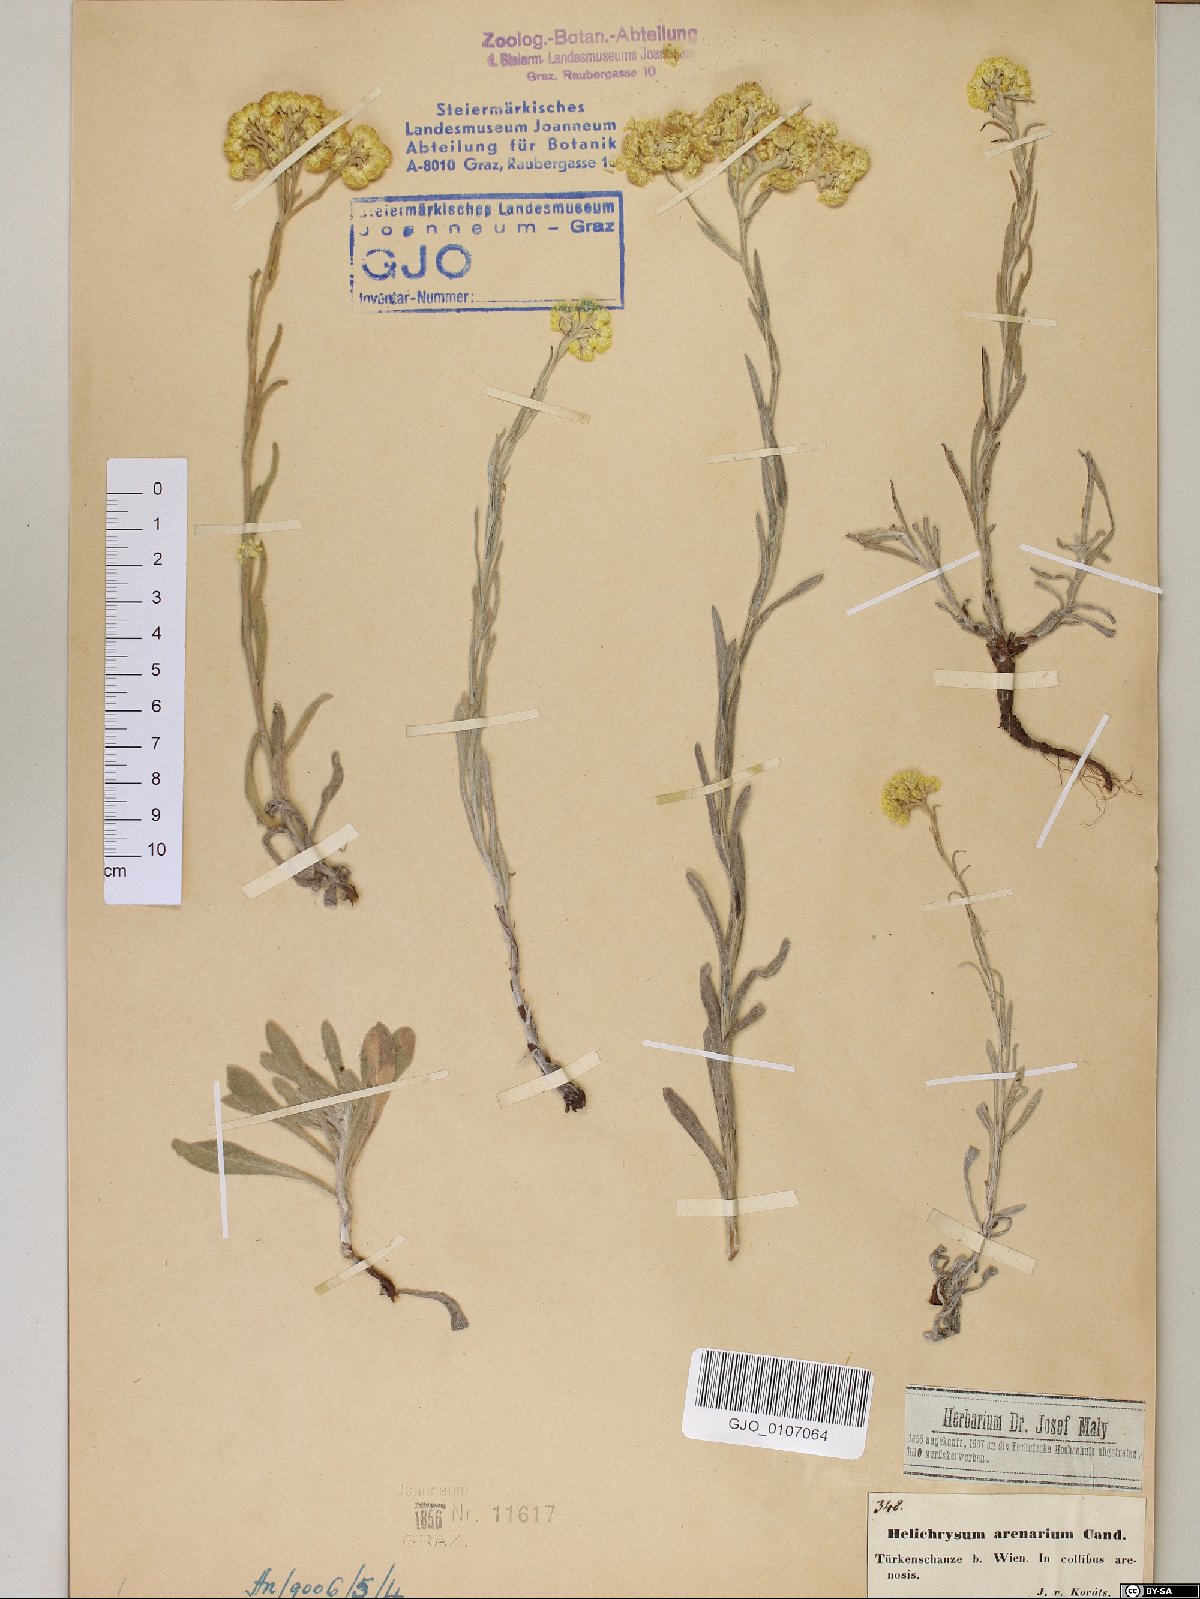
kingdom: Plantae
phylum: Tracheophyta
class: Magnoliopsida
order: Asterales
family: Asteraceae
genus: Helichrysum
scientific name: Helichrysum arenarium
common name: Strawflower
